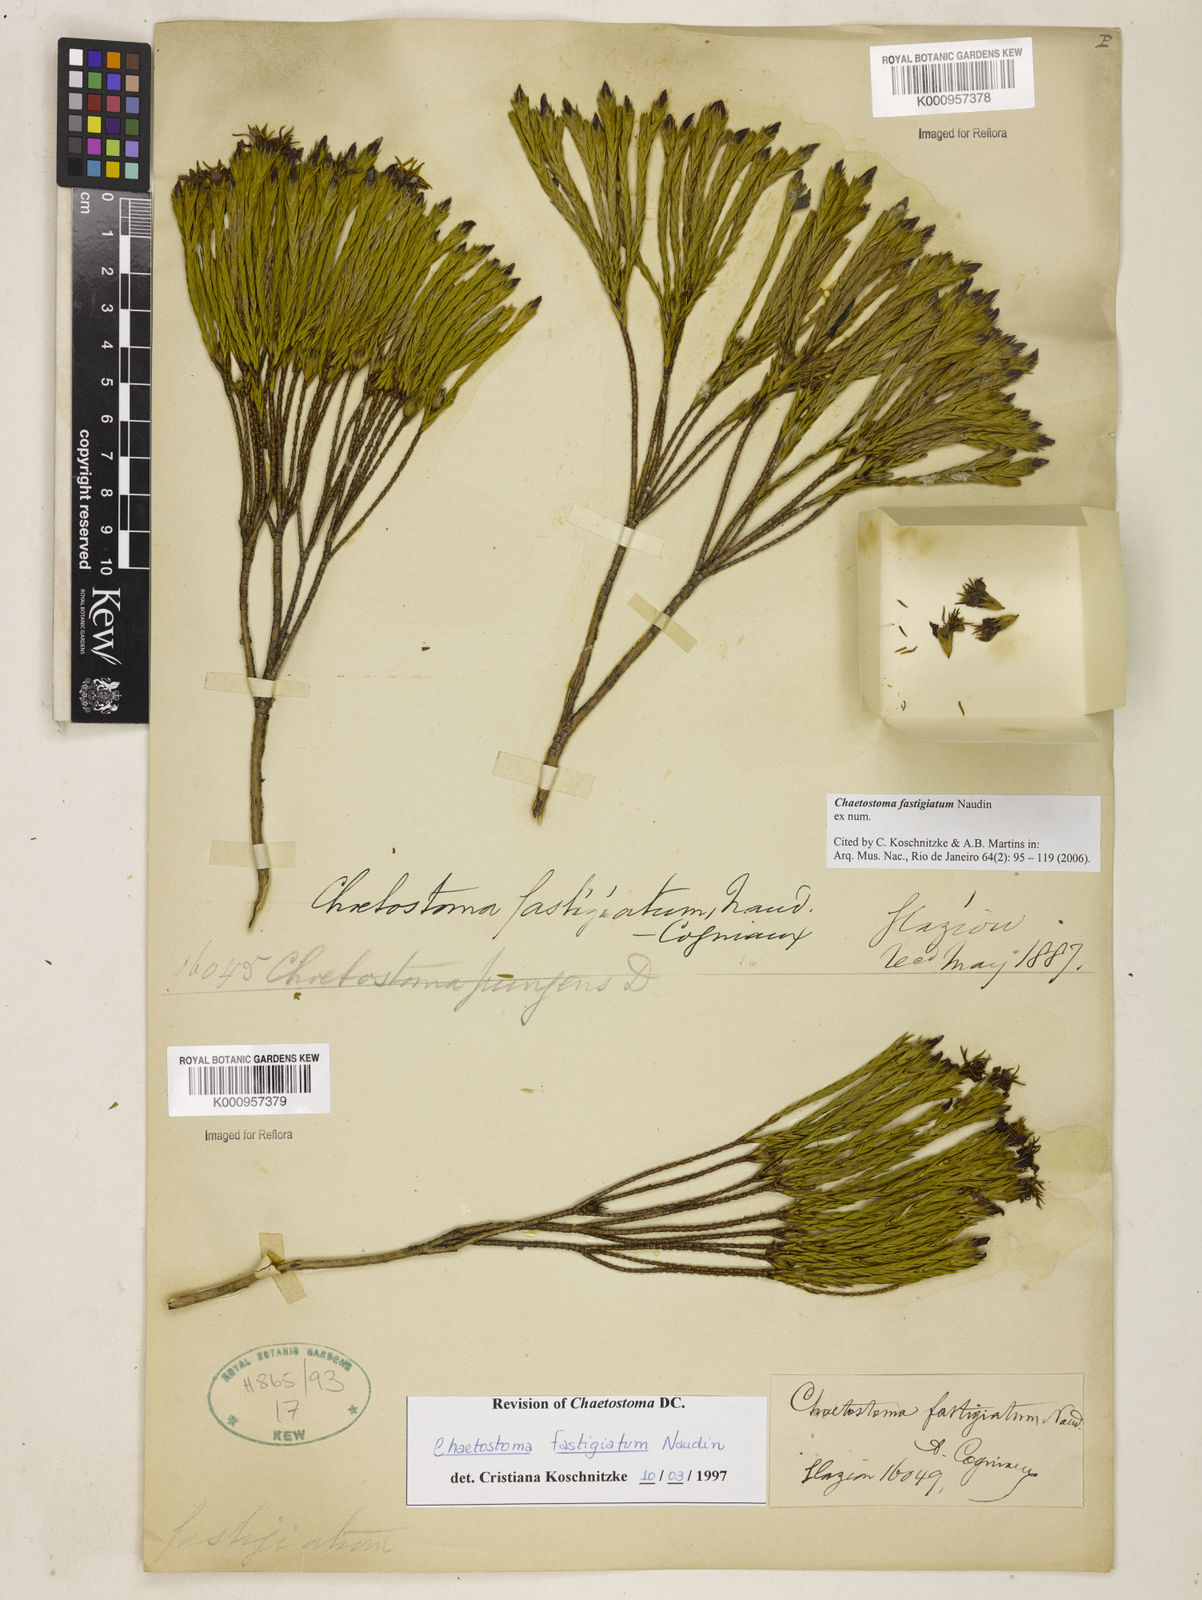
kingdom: Plantae
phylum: Tracheophyta
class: Magnoliopsida
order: Myrtales
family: Melastomataceae
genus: Microlicia
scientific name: Microlicia fastigiata
